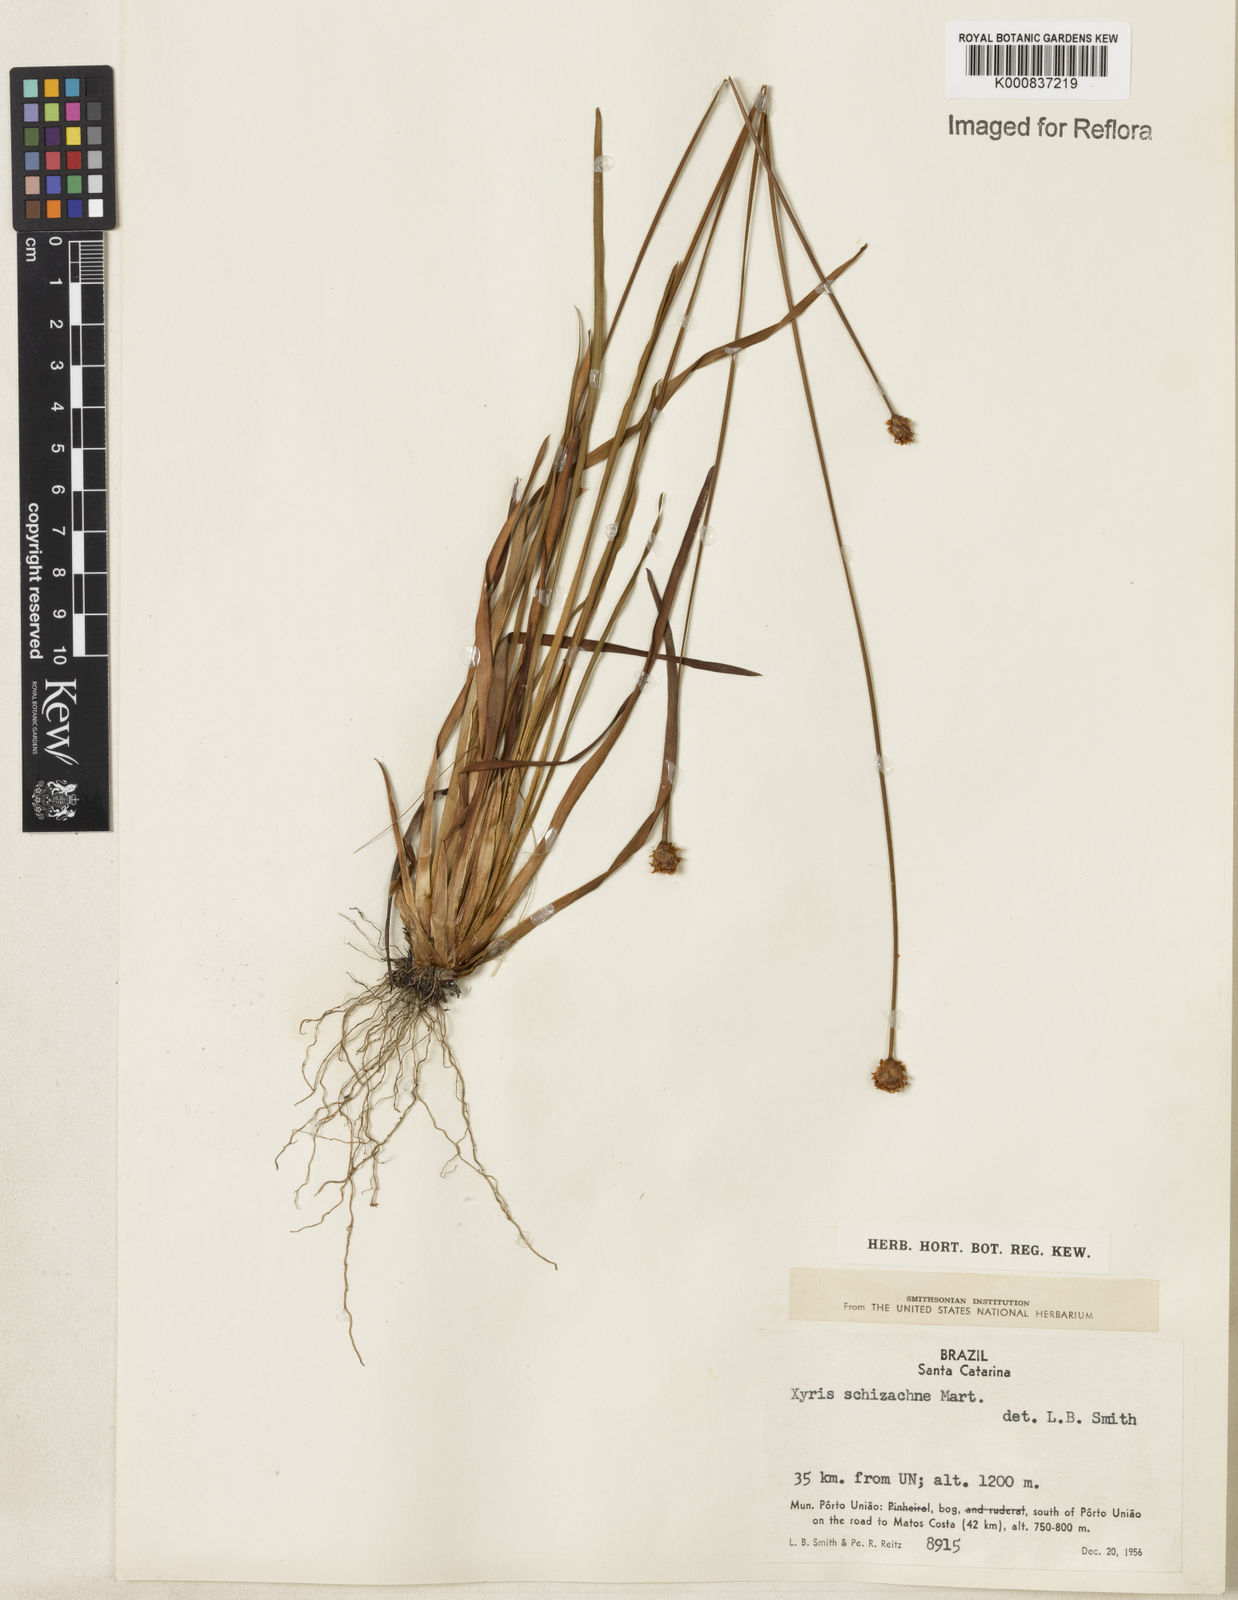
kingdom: Plantae
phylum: Tracheophyta
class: Liliopsida
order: Poales
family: Xyridaceae
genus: Xyris
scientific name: Xyris schizachne
